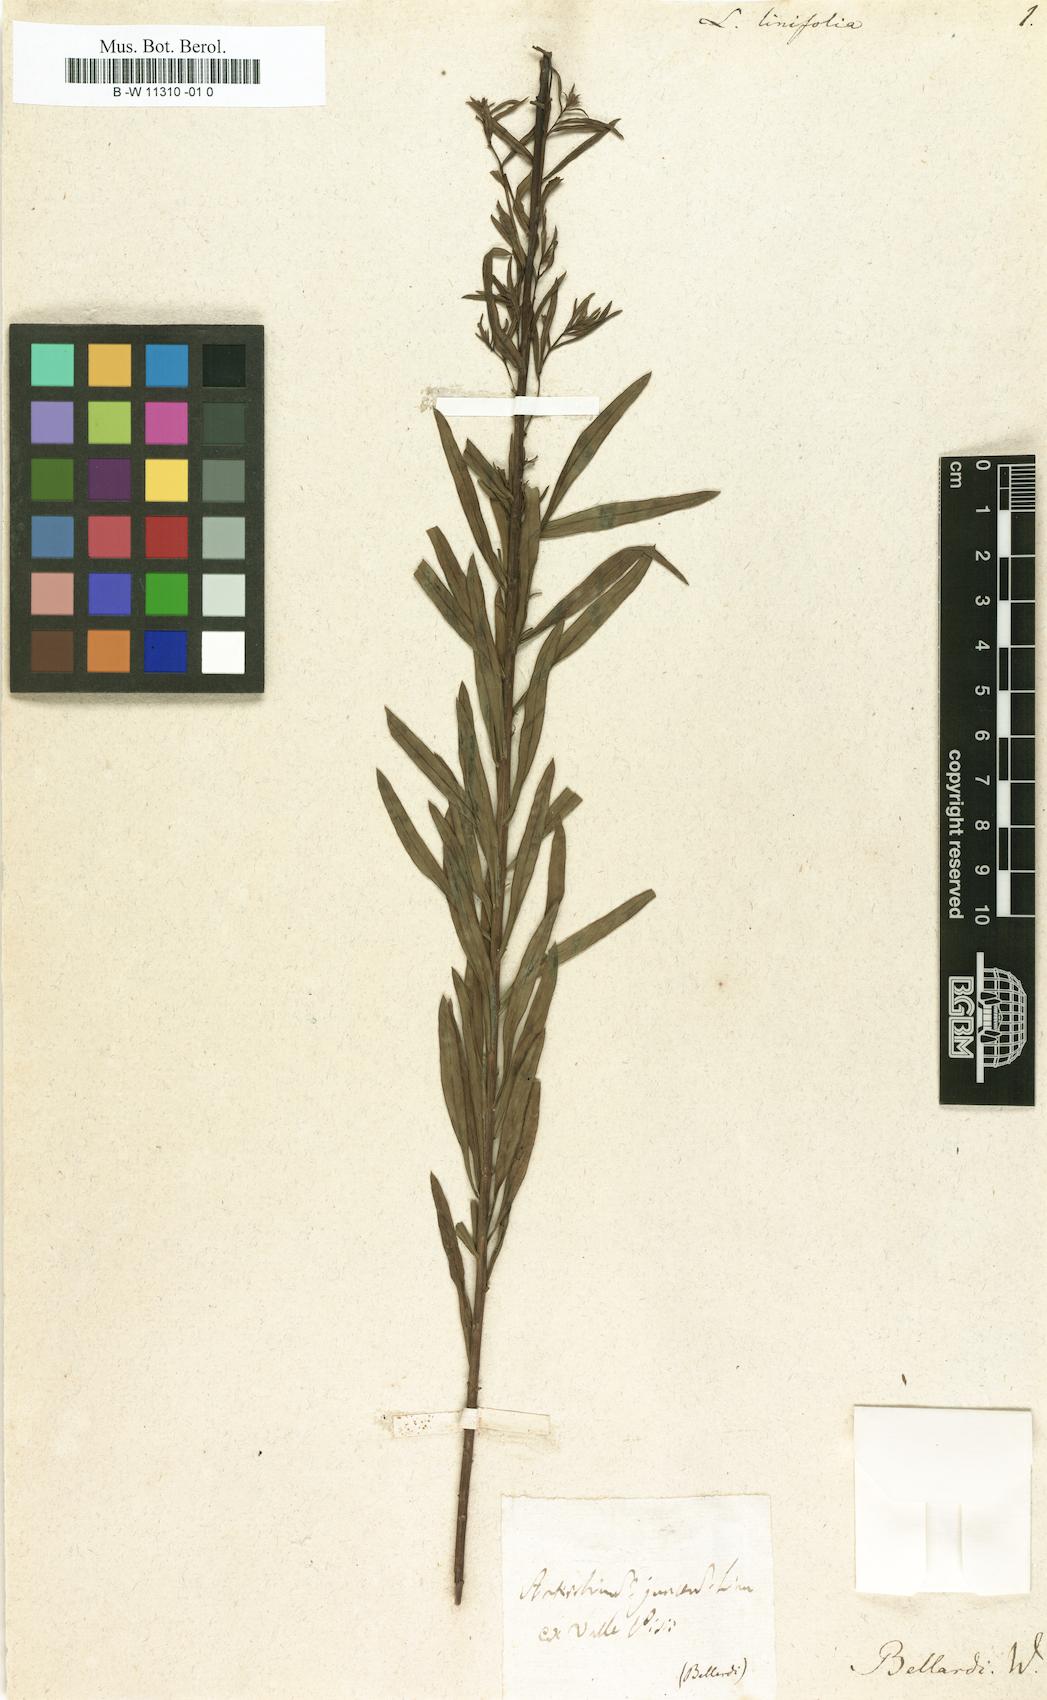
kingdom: Plantae
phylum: Tracheophyta
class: Magnoliopsida
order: Lamiales
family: Plantaginaceae
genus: Linaria
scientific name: Linaria
